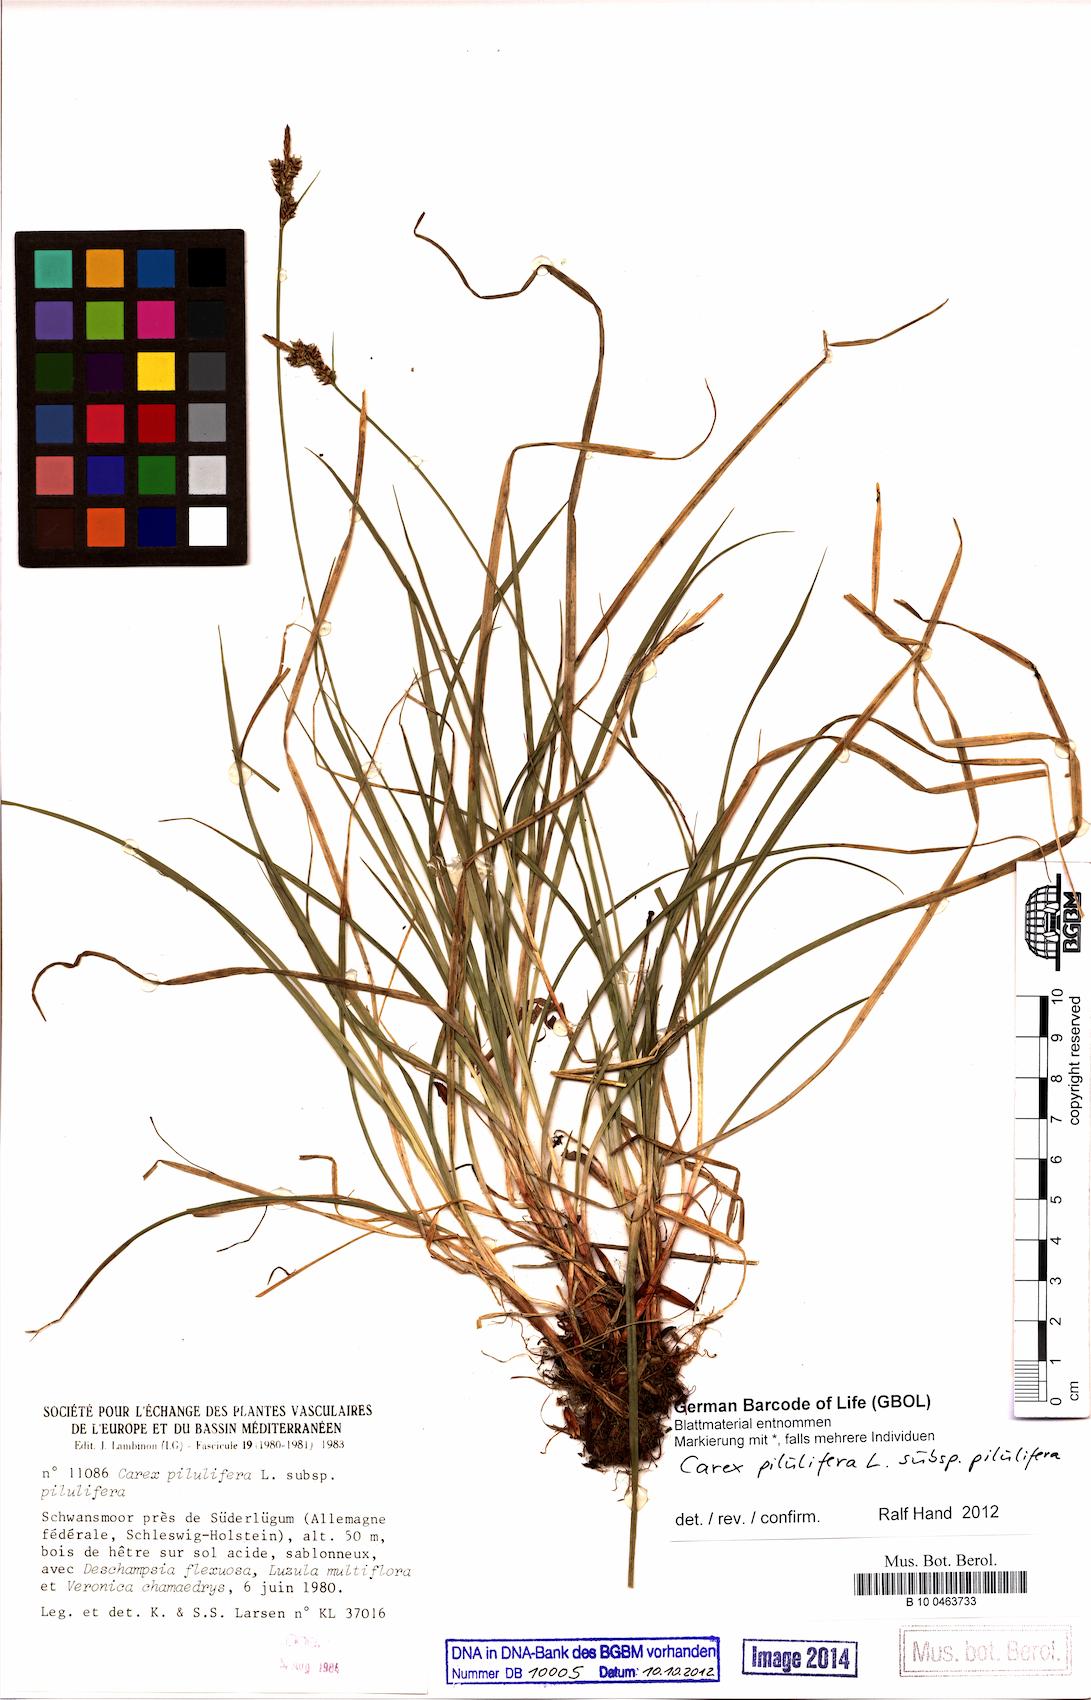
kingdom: Plantae
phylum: Tracheophyta
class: Liliopsida
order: Poales
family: Cyperaceae
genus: Carex
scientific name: Carex pilulifera
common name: Pill sedge
